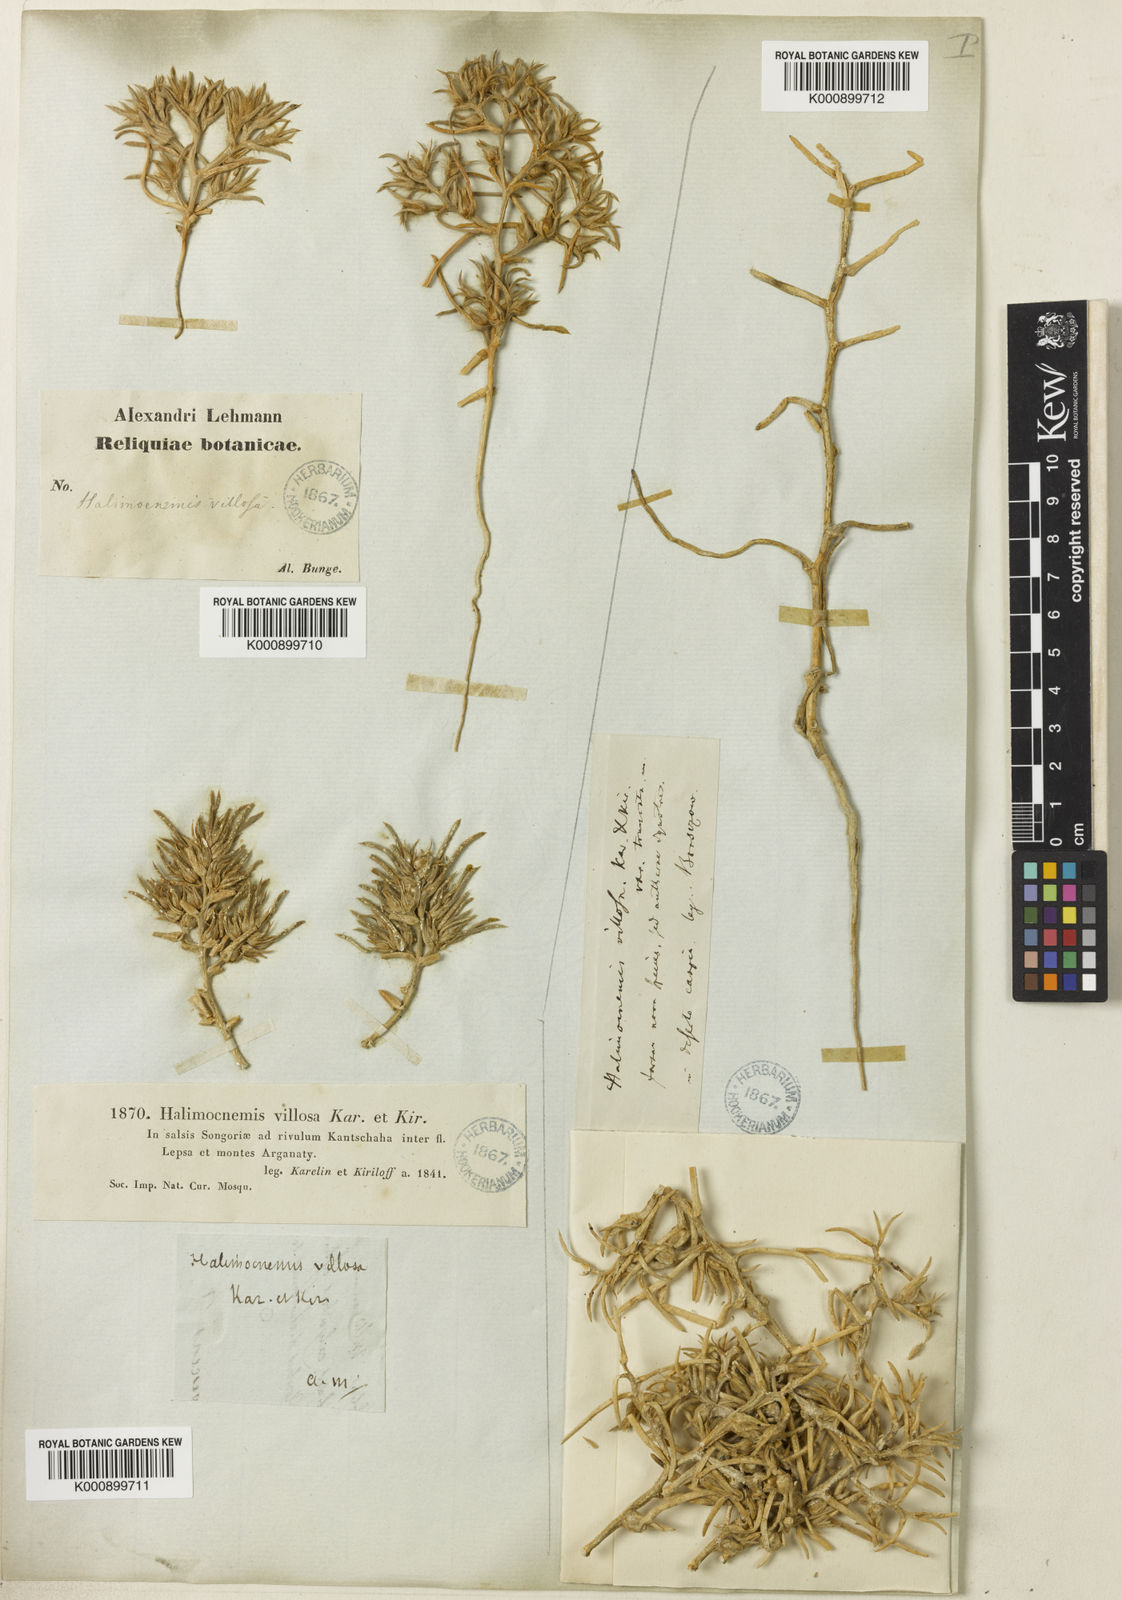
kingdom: Plantae
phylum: Tracheophyta
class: Magnoliopsida
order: Caryophyllales
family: Amaranthaceae
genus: Halimocnemis
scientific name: Halimocnemis villosa
